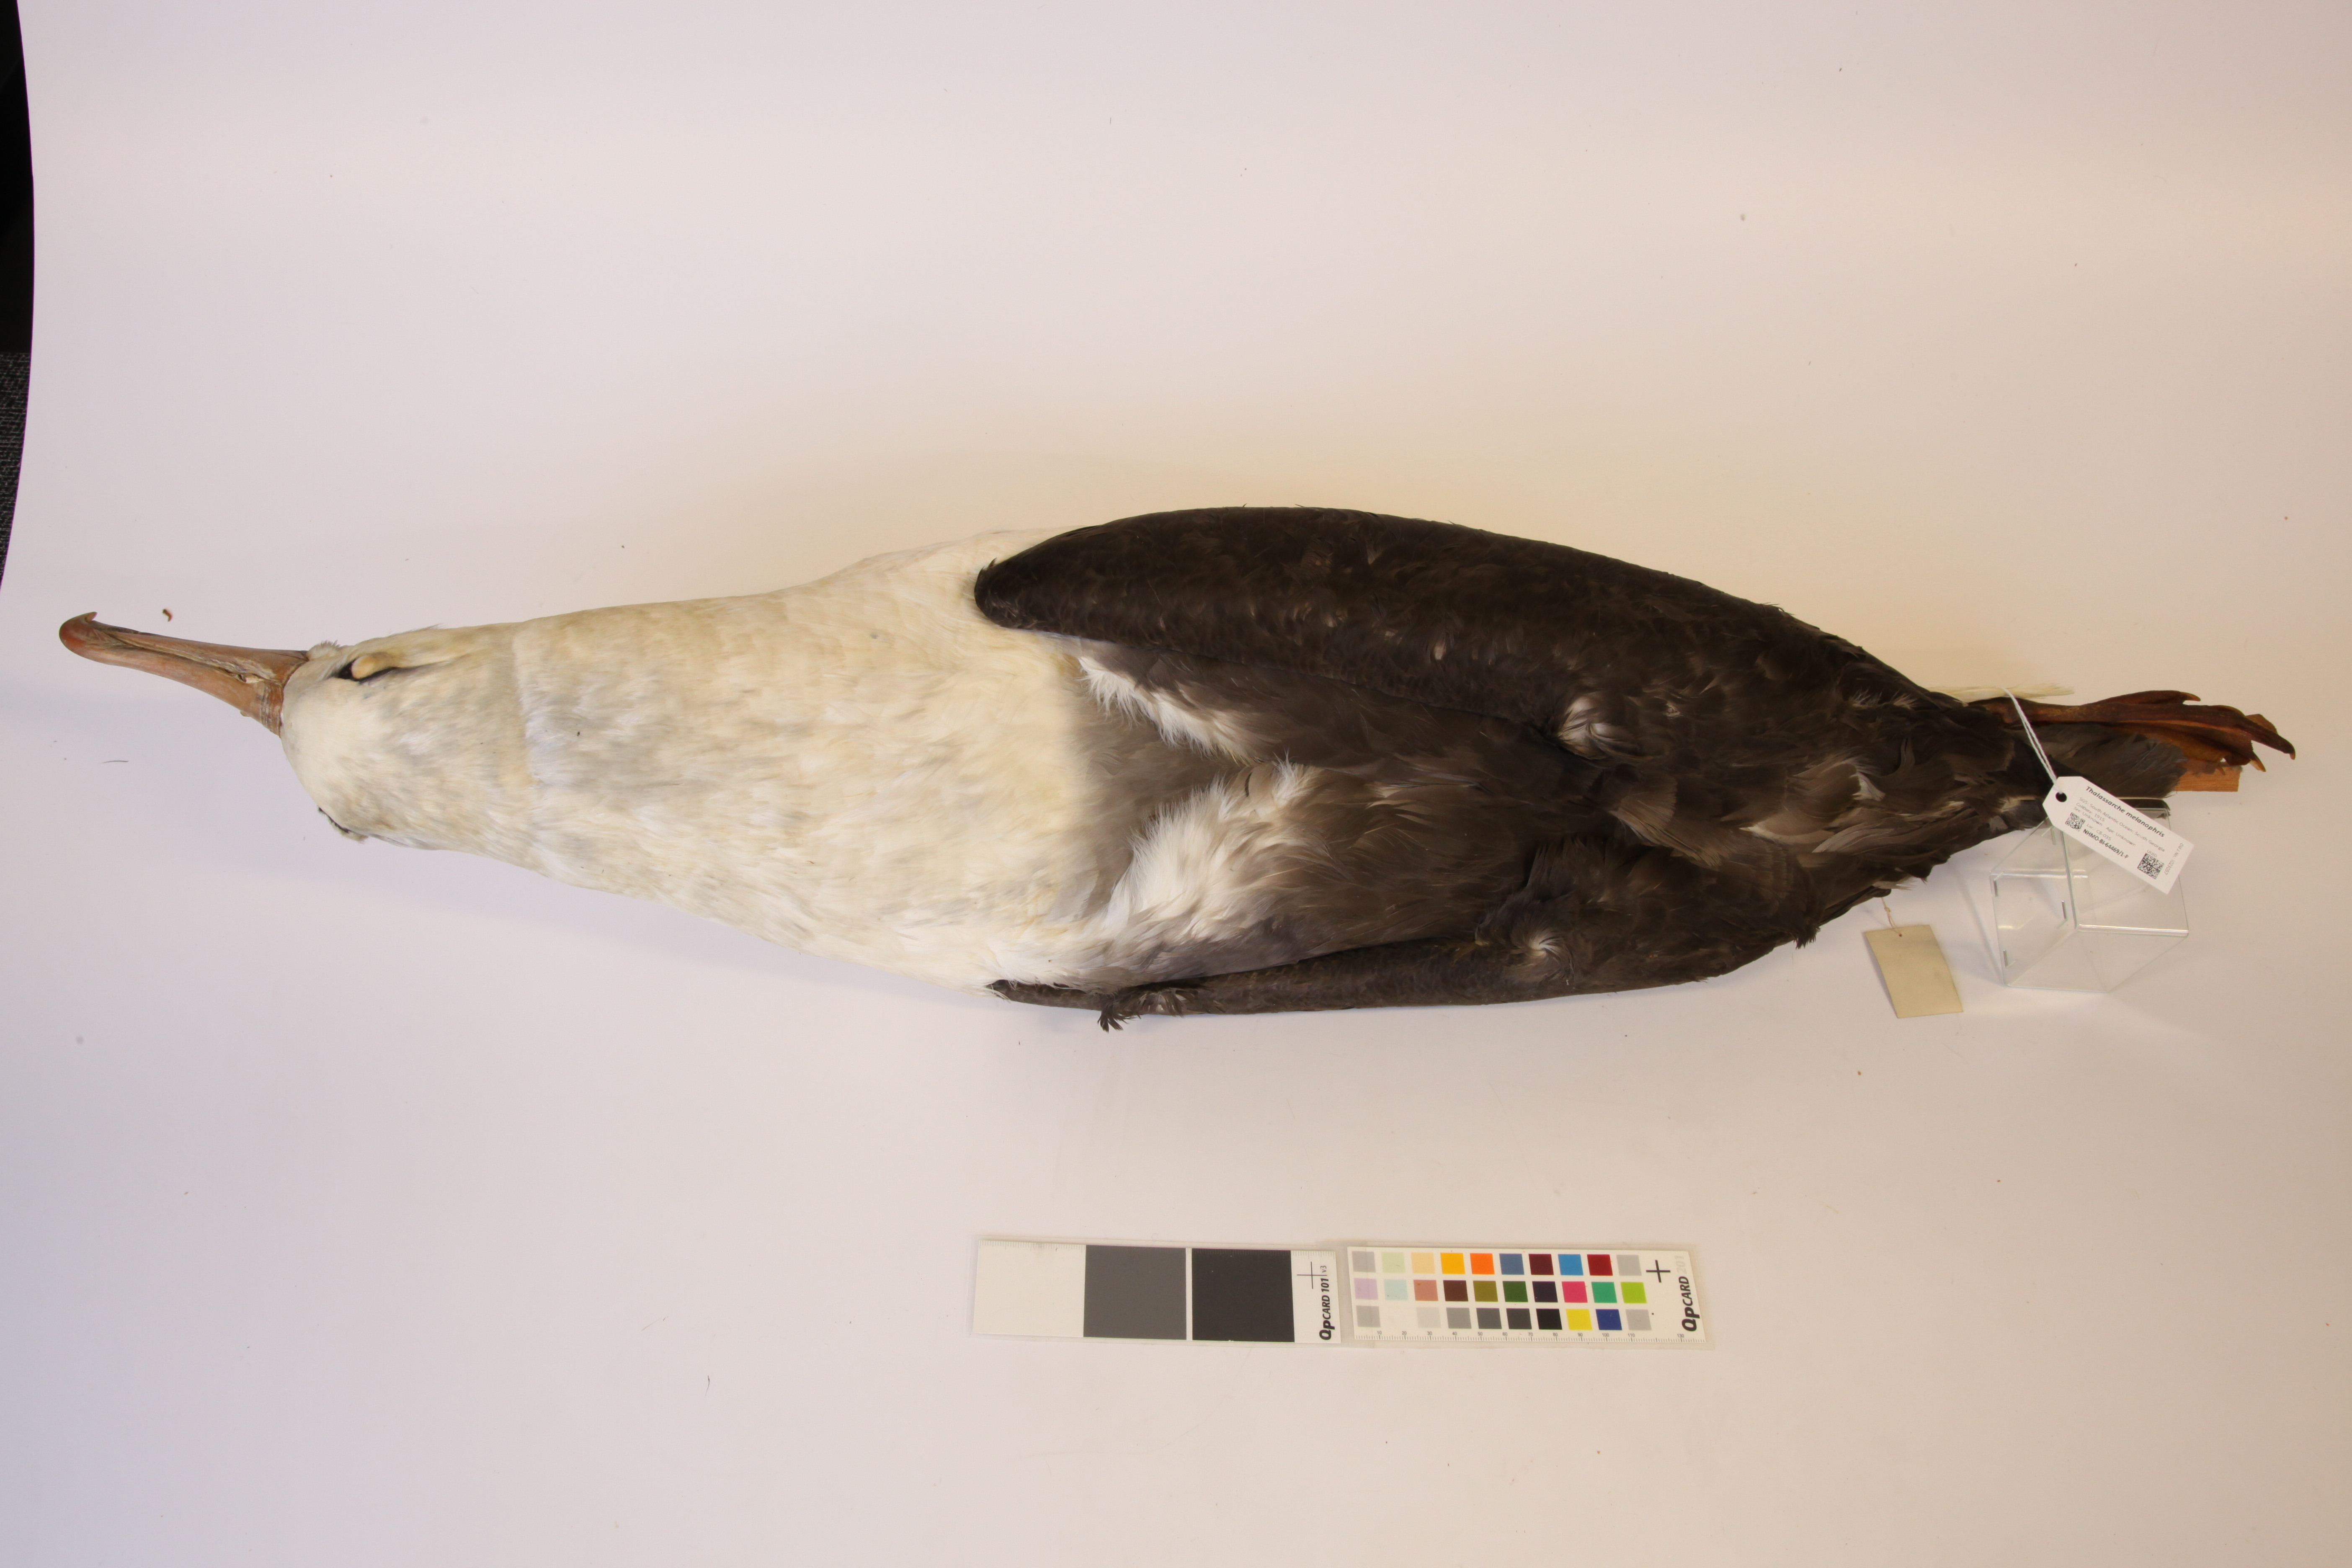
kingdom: Animalia
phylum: Chordata
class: Aves
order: Procellariiformes
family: Diomedeidae
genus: Thalassarche
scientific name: Thalassarche melanophris
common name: Black-browed albatross
